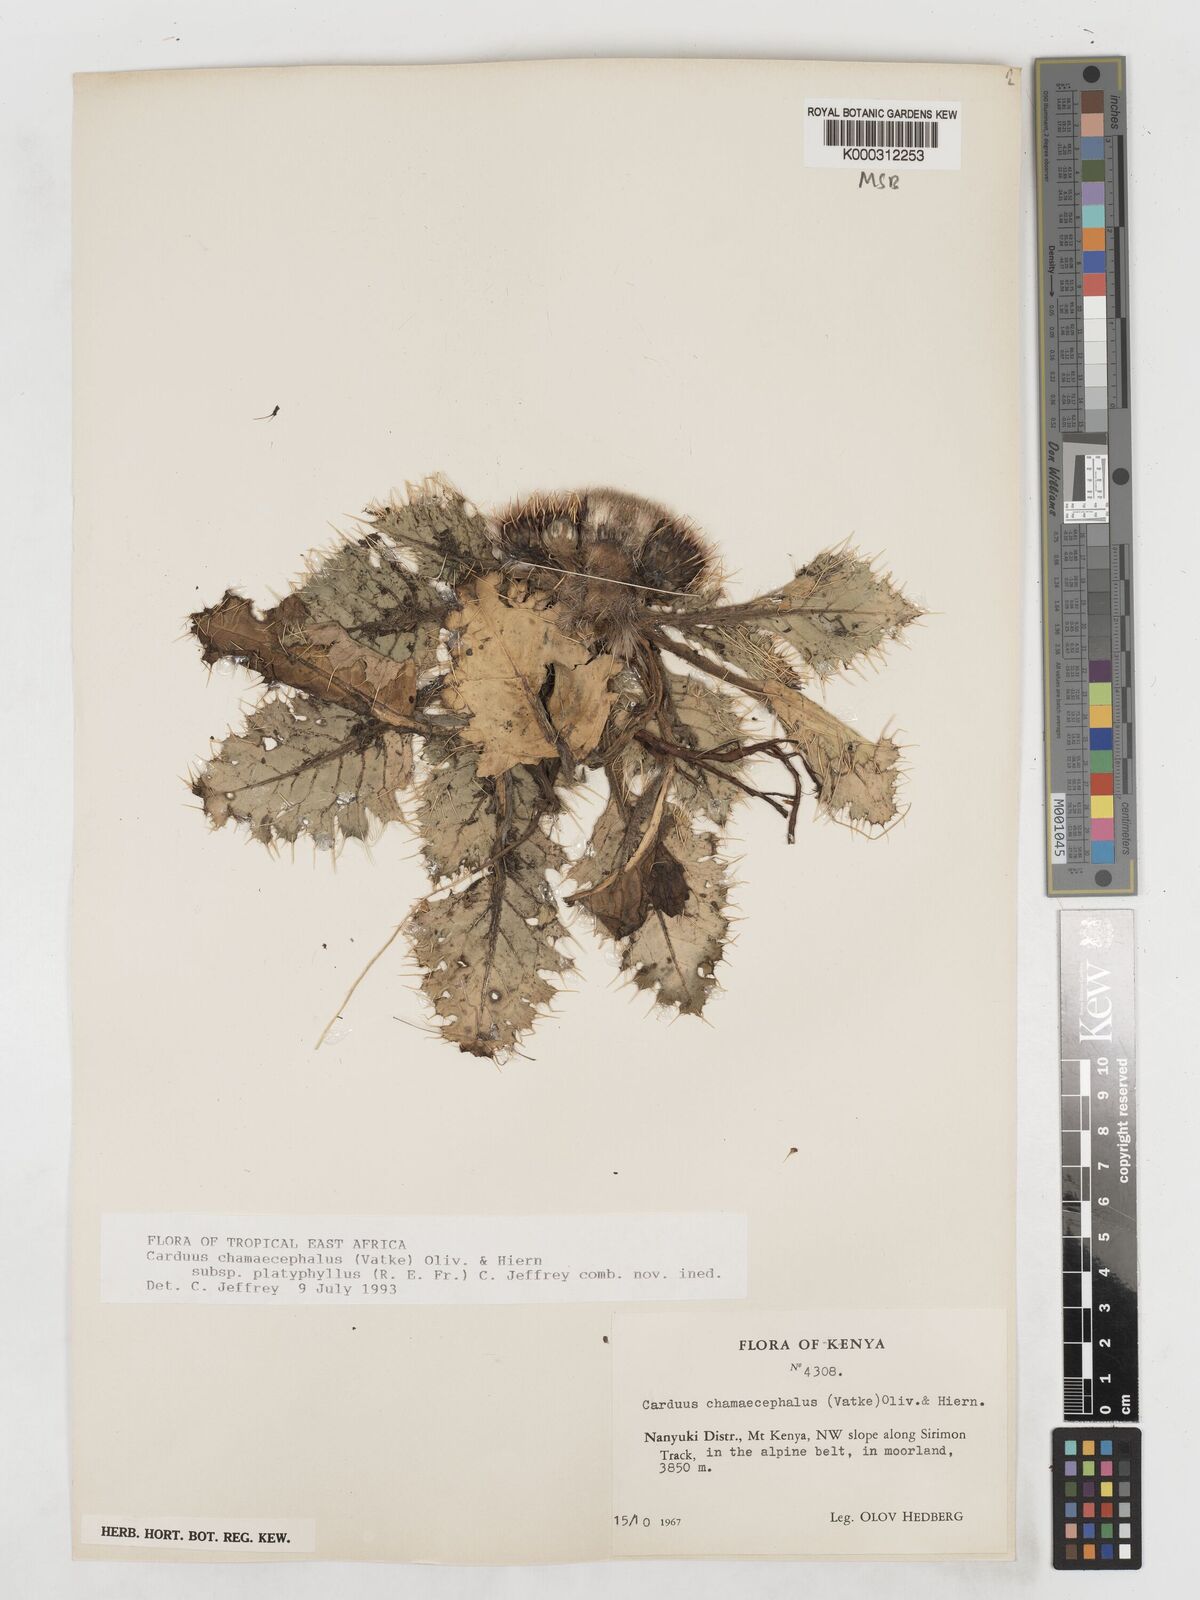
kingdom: Plantae
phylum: Tracheophyta
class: Magnoliopsida
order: Asterales
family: Asteraceae
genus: Carduus
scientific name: Carduus schimperi
